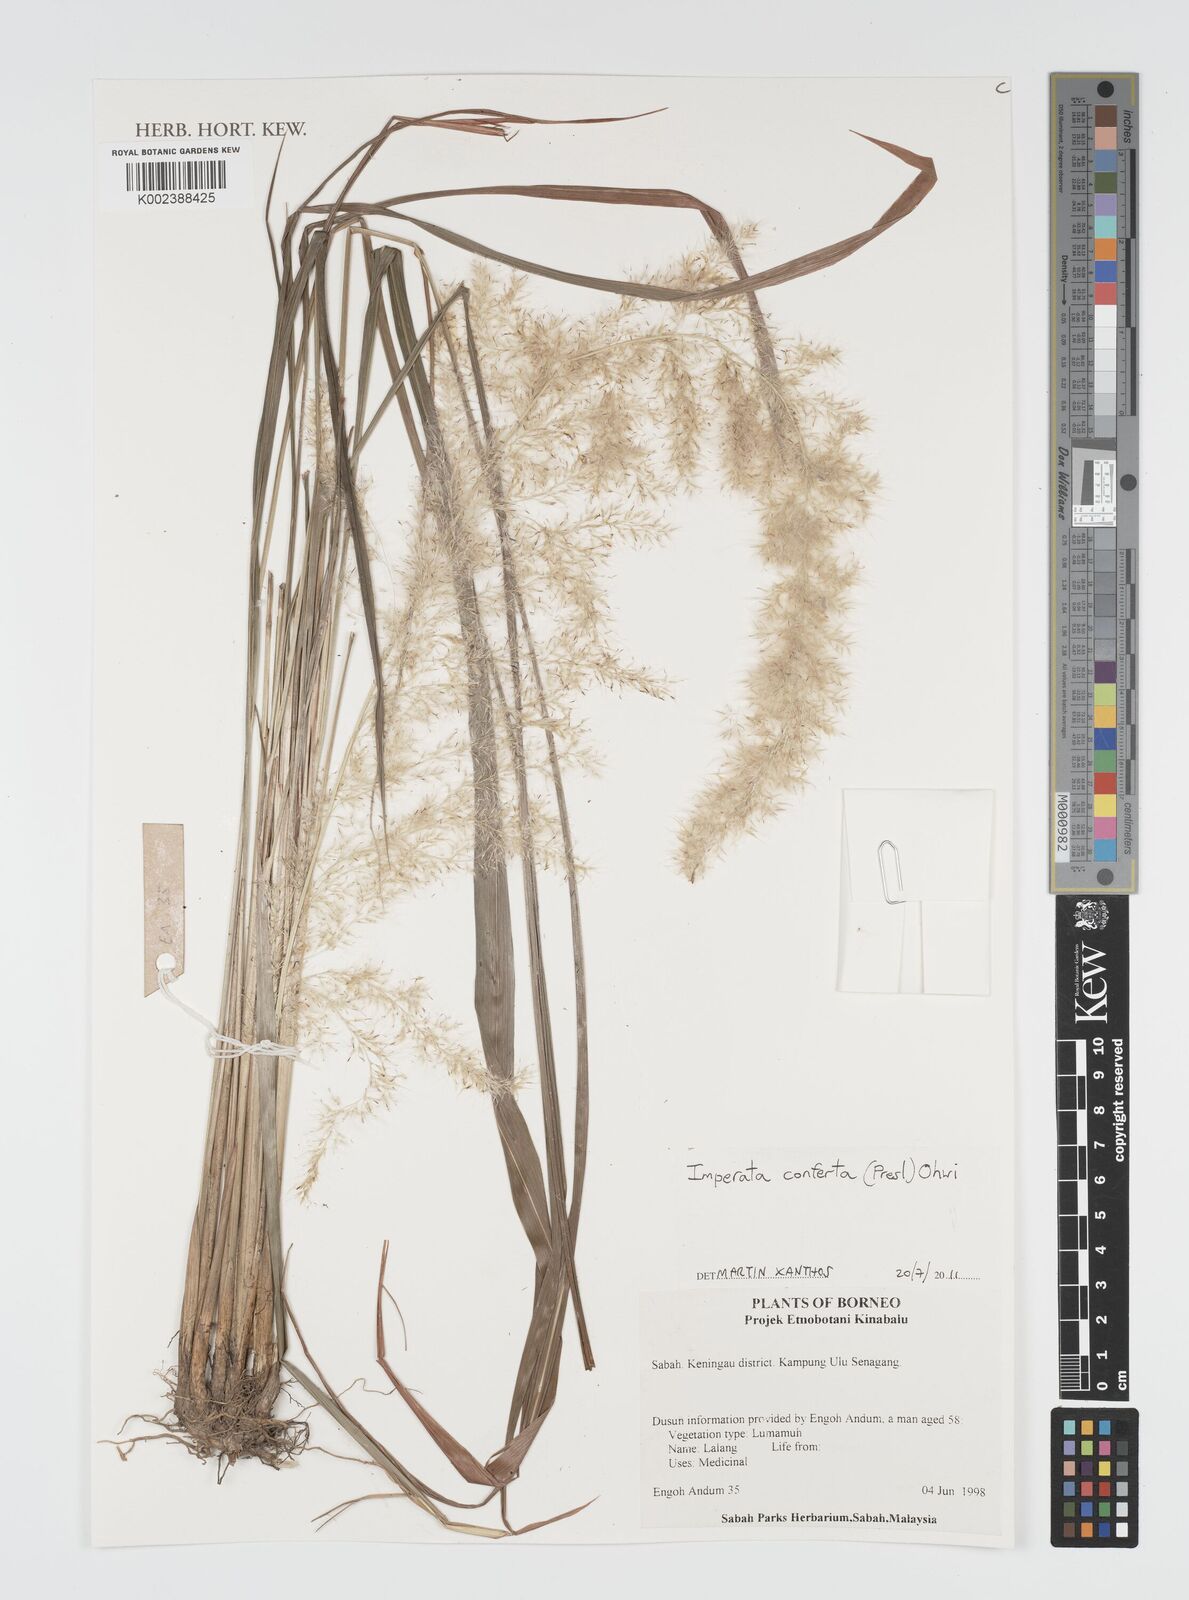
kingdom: Plantae
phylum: Tracheophyta
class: Liliopsida
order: Poales
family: Poaceae
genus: Imperata
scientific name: Imperata conferta
